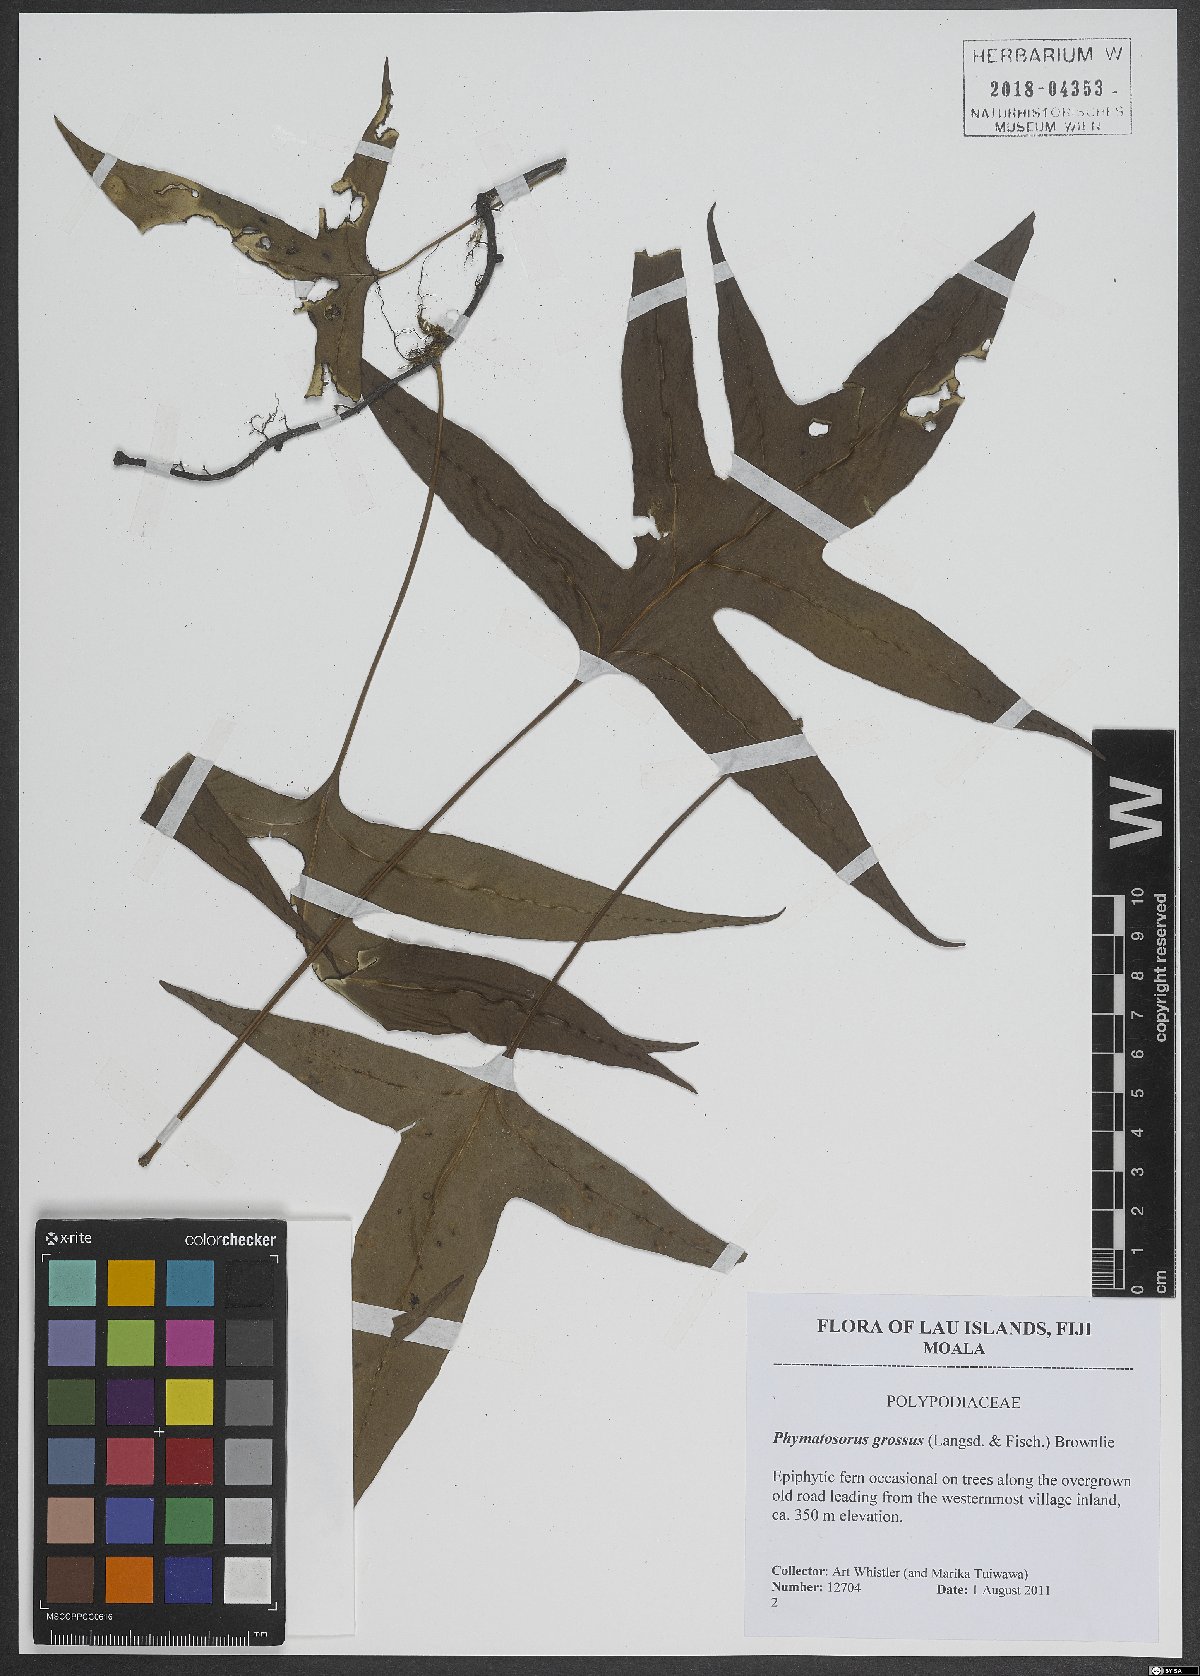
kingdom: Plantae
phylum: Tracheophyta
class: Polypodiopsida
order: Polypodiales
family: Polypodiaceae
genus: Microsorum
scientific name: Microsorum grossum
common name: Musk fern
